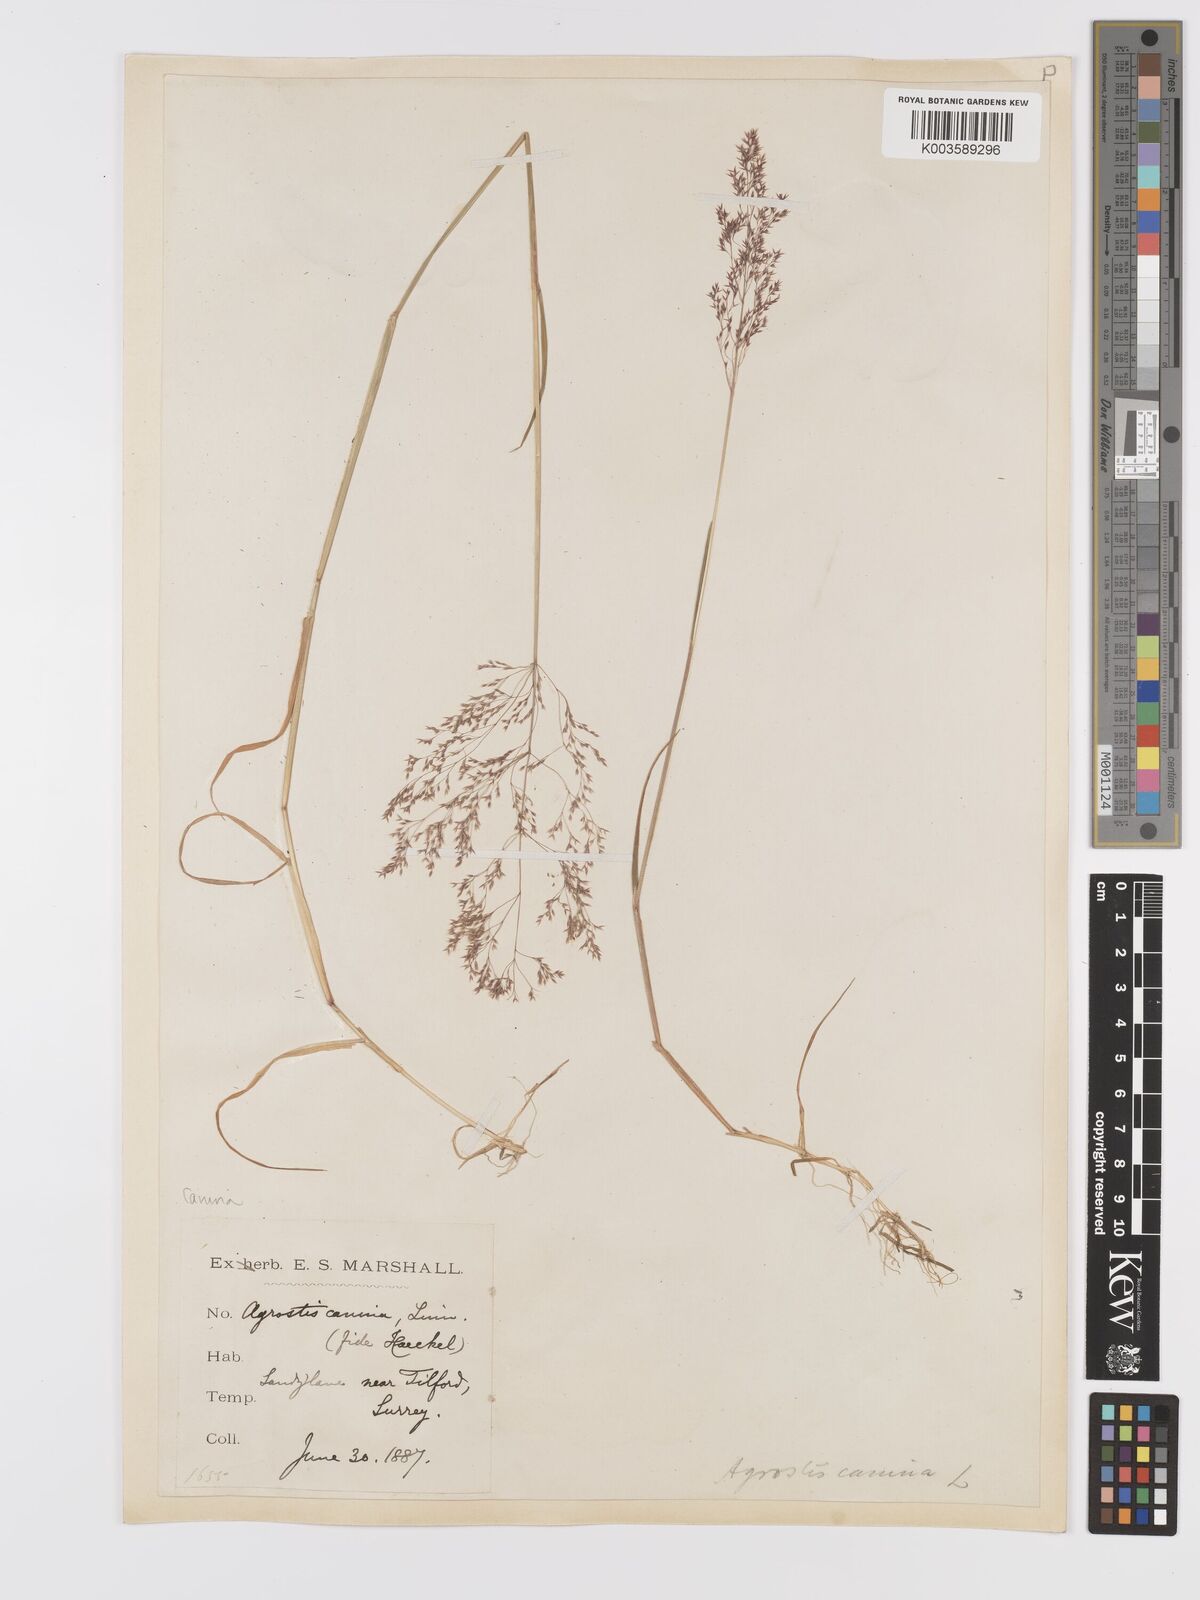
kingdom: Plantae
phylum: Tracheophyta
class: Liliopsida
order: Poales
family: Poaceae
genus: Agrostis
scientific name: Agrostis canina
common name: Velvet bent
